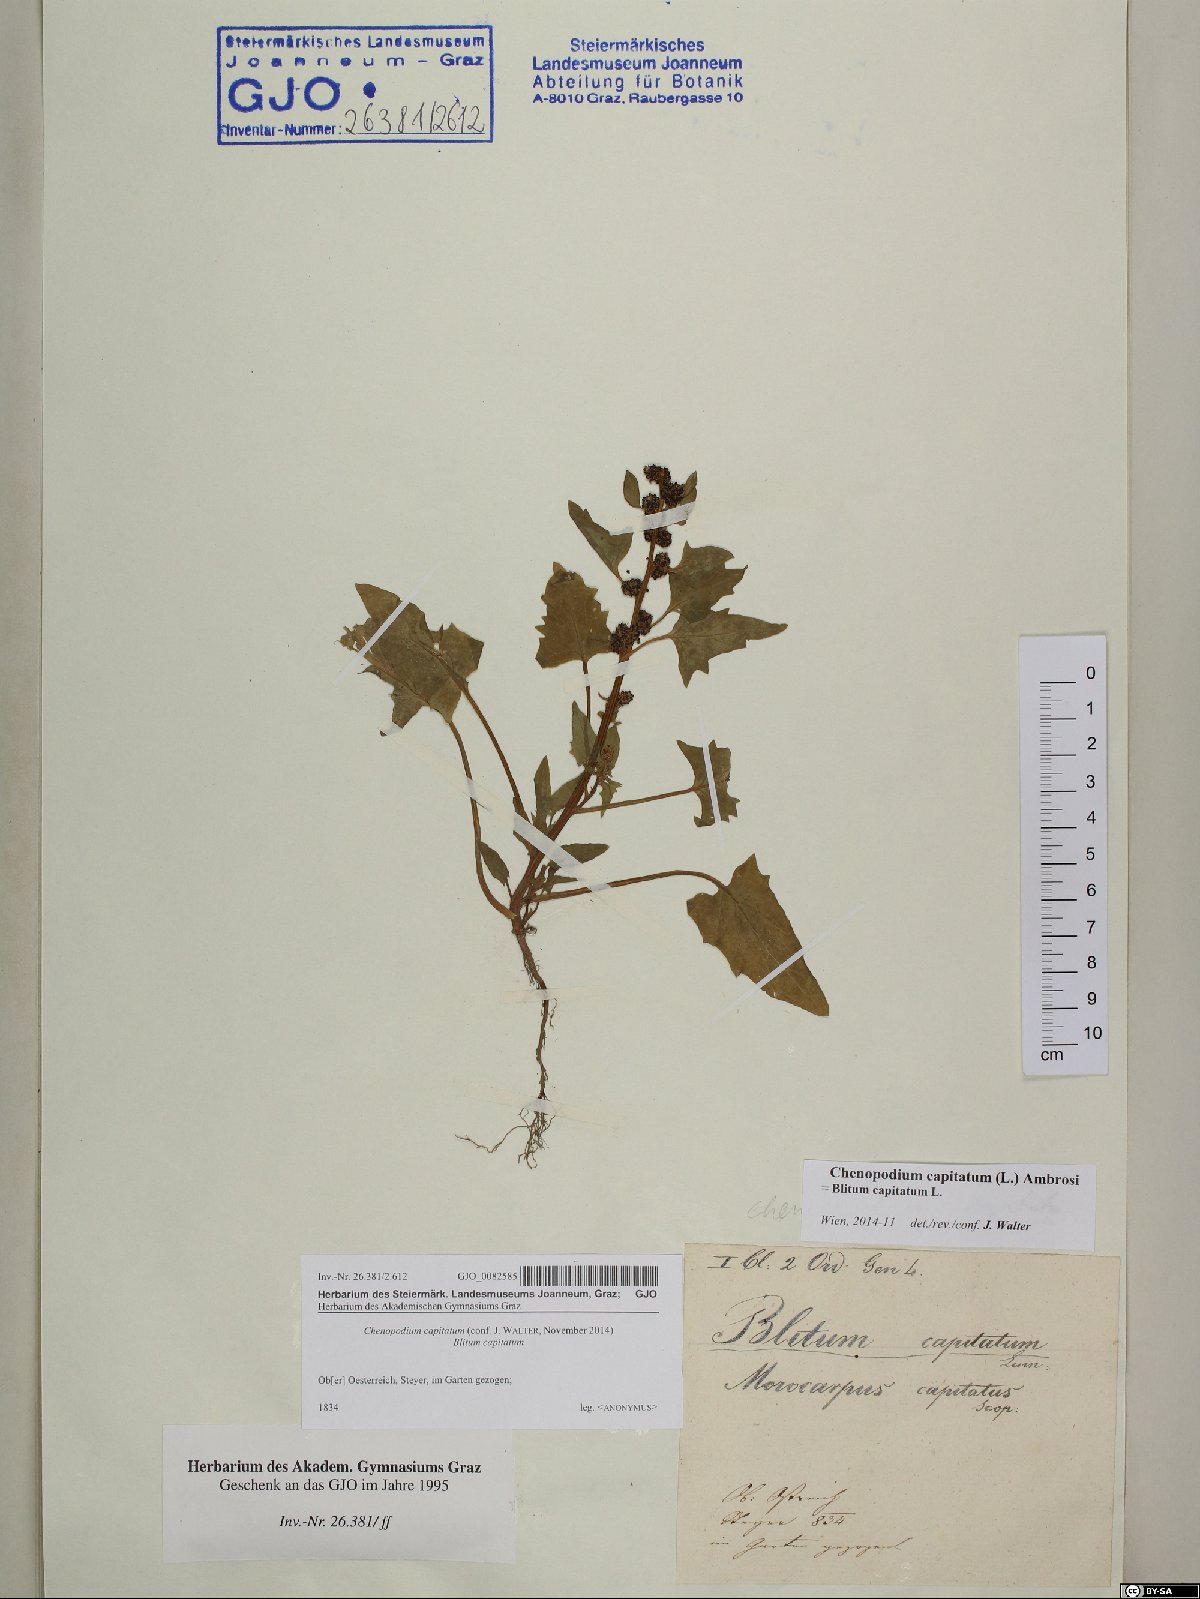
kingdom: Plantae
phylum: Tracheophyta
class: Magnoliopsida
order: Caryophyllales
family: Amaranthaceae
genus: Blitum
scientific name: Blitum capitatum
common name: Strawberry-blight
